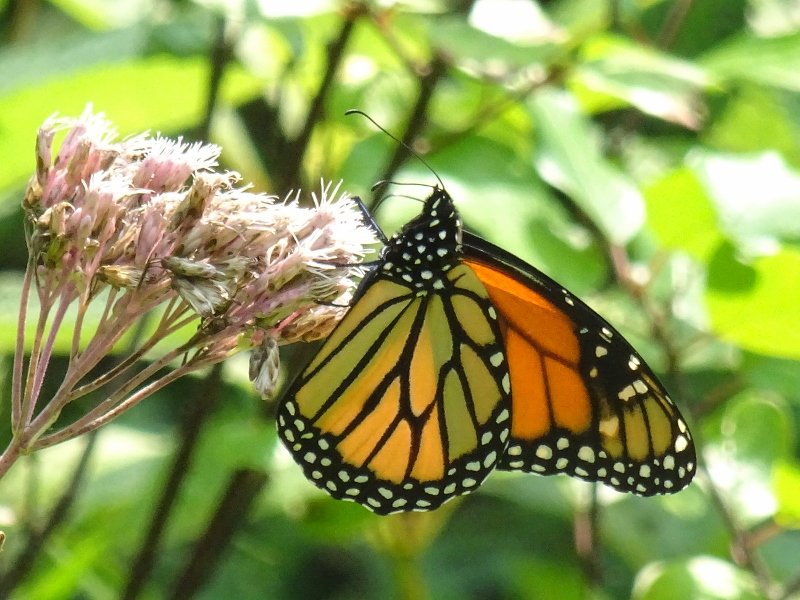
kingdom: Animalia
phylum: Arthropoda
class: Insecta
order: Lepidoptera
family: Nymphalidae
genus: Danaus
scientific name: Danaus plexippus
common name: Monarch
